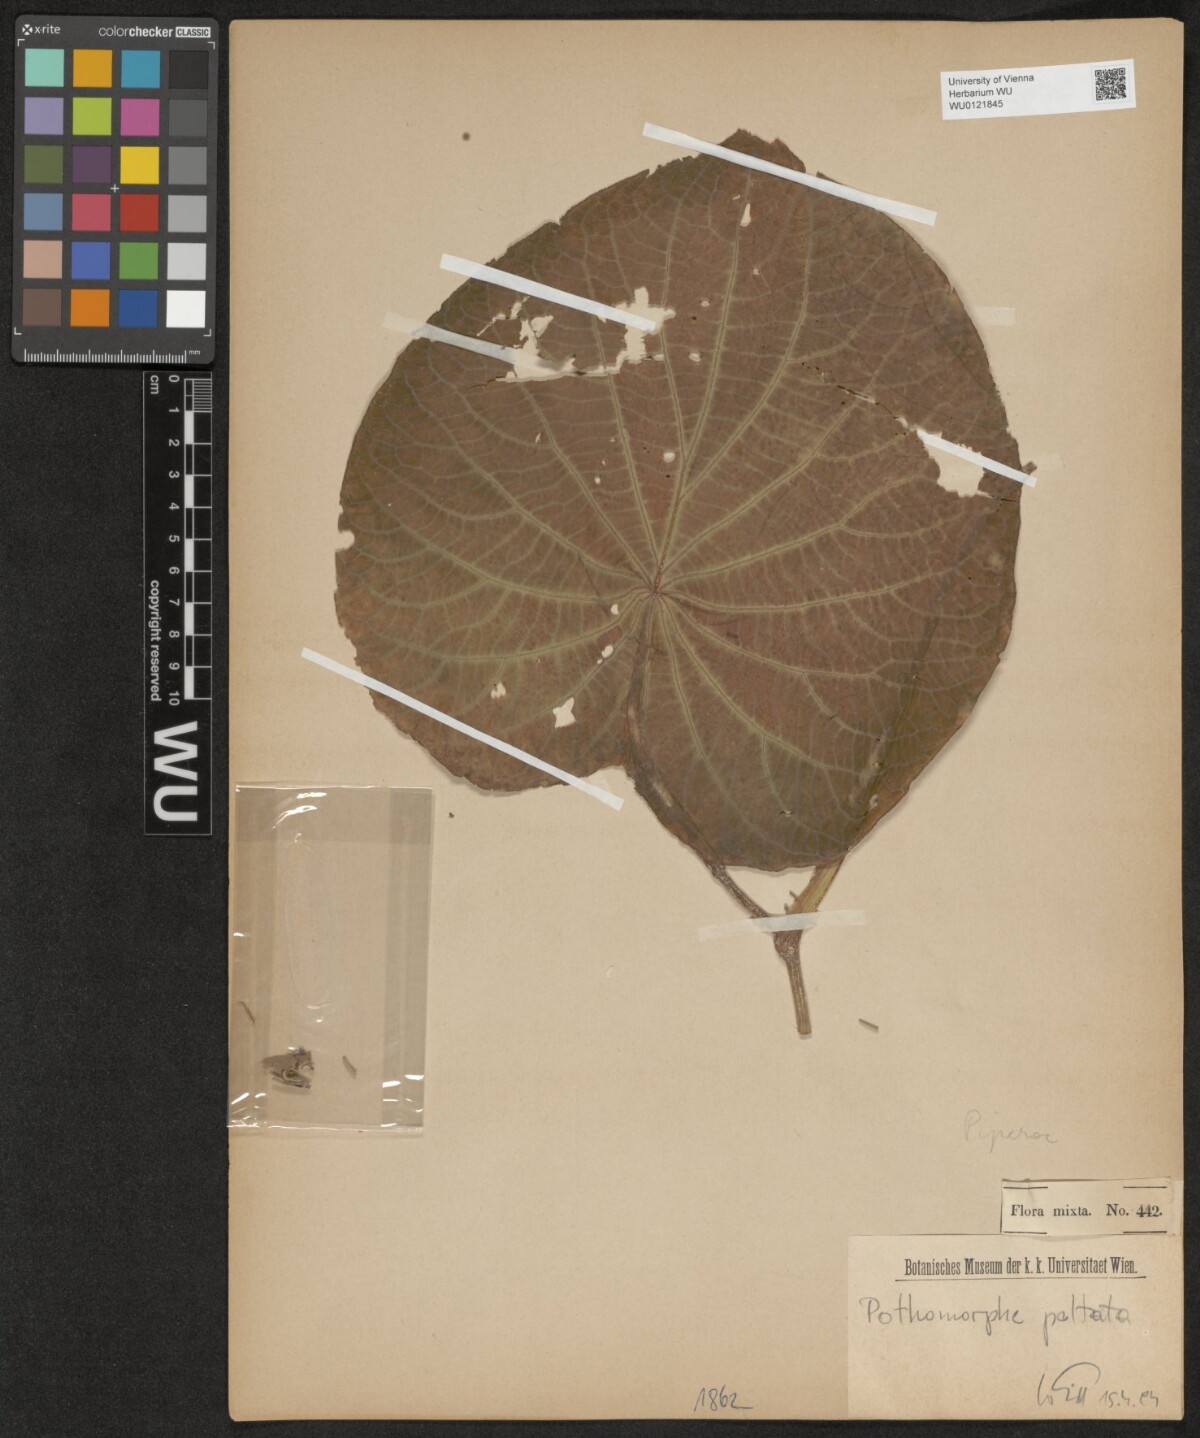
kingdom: Plantae
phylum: Tracheophyta
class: Magnoliopsida
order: Piperales
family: Piperaceae
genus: Piper
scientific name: Piper peltatum
